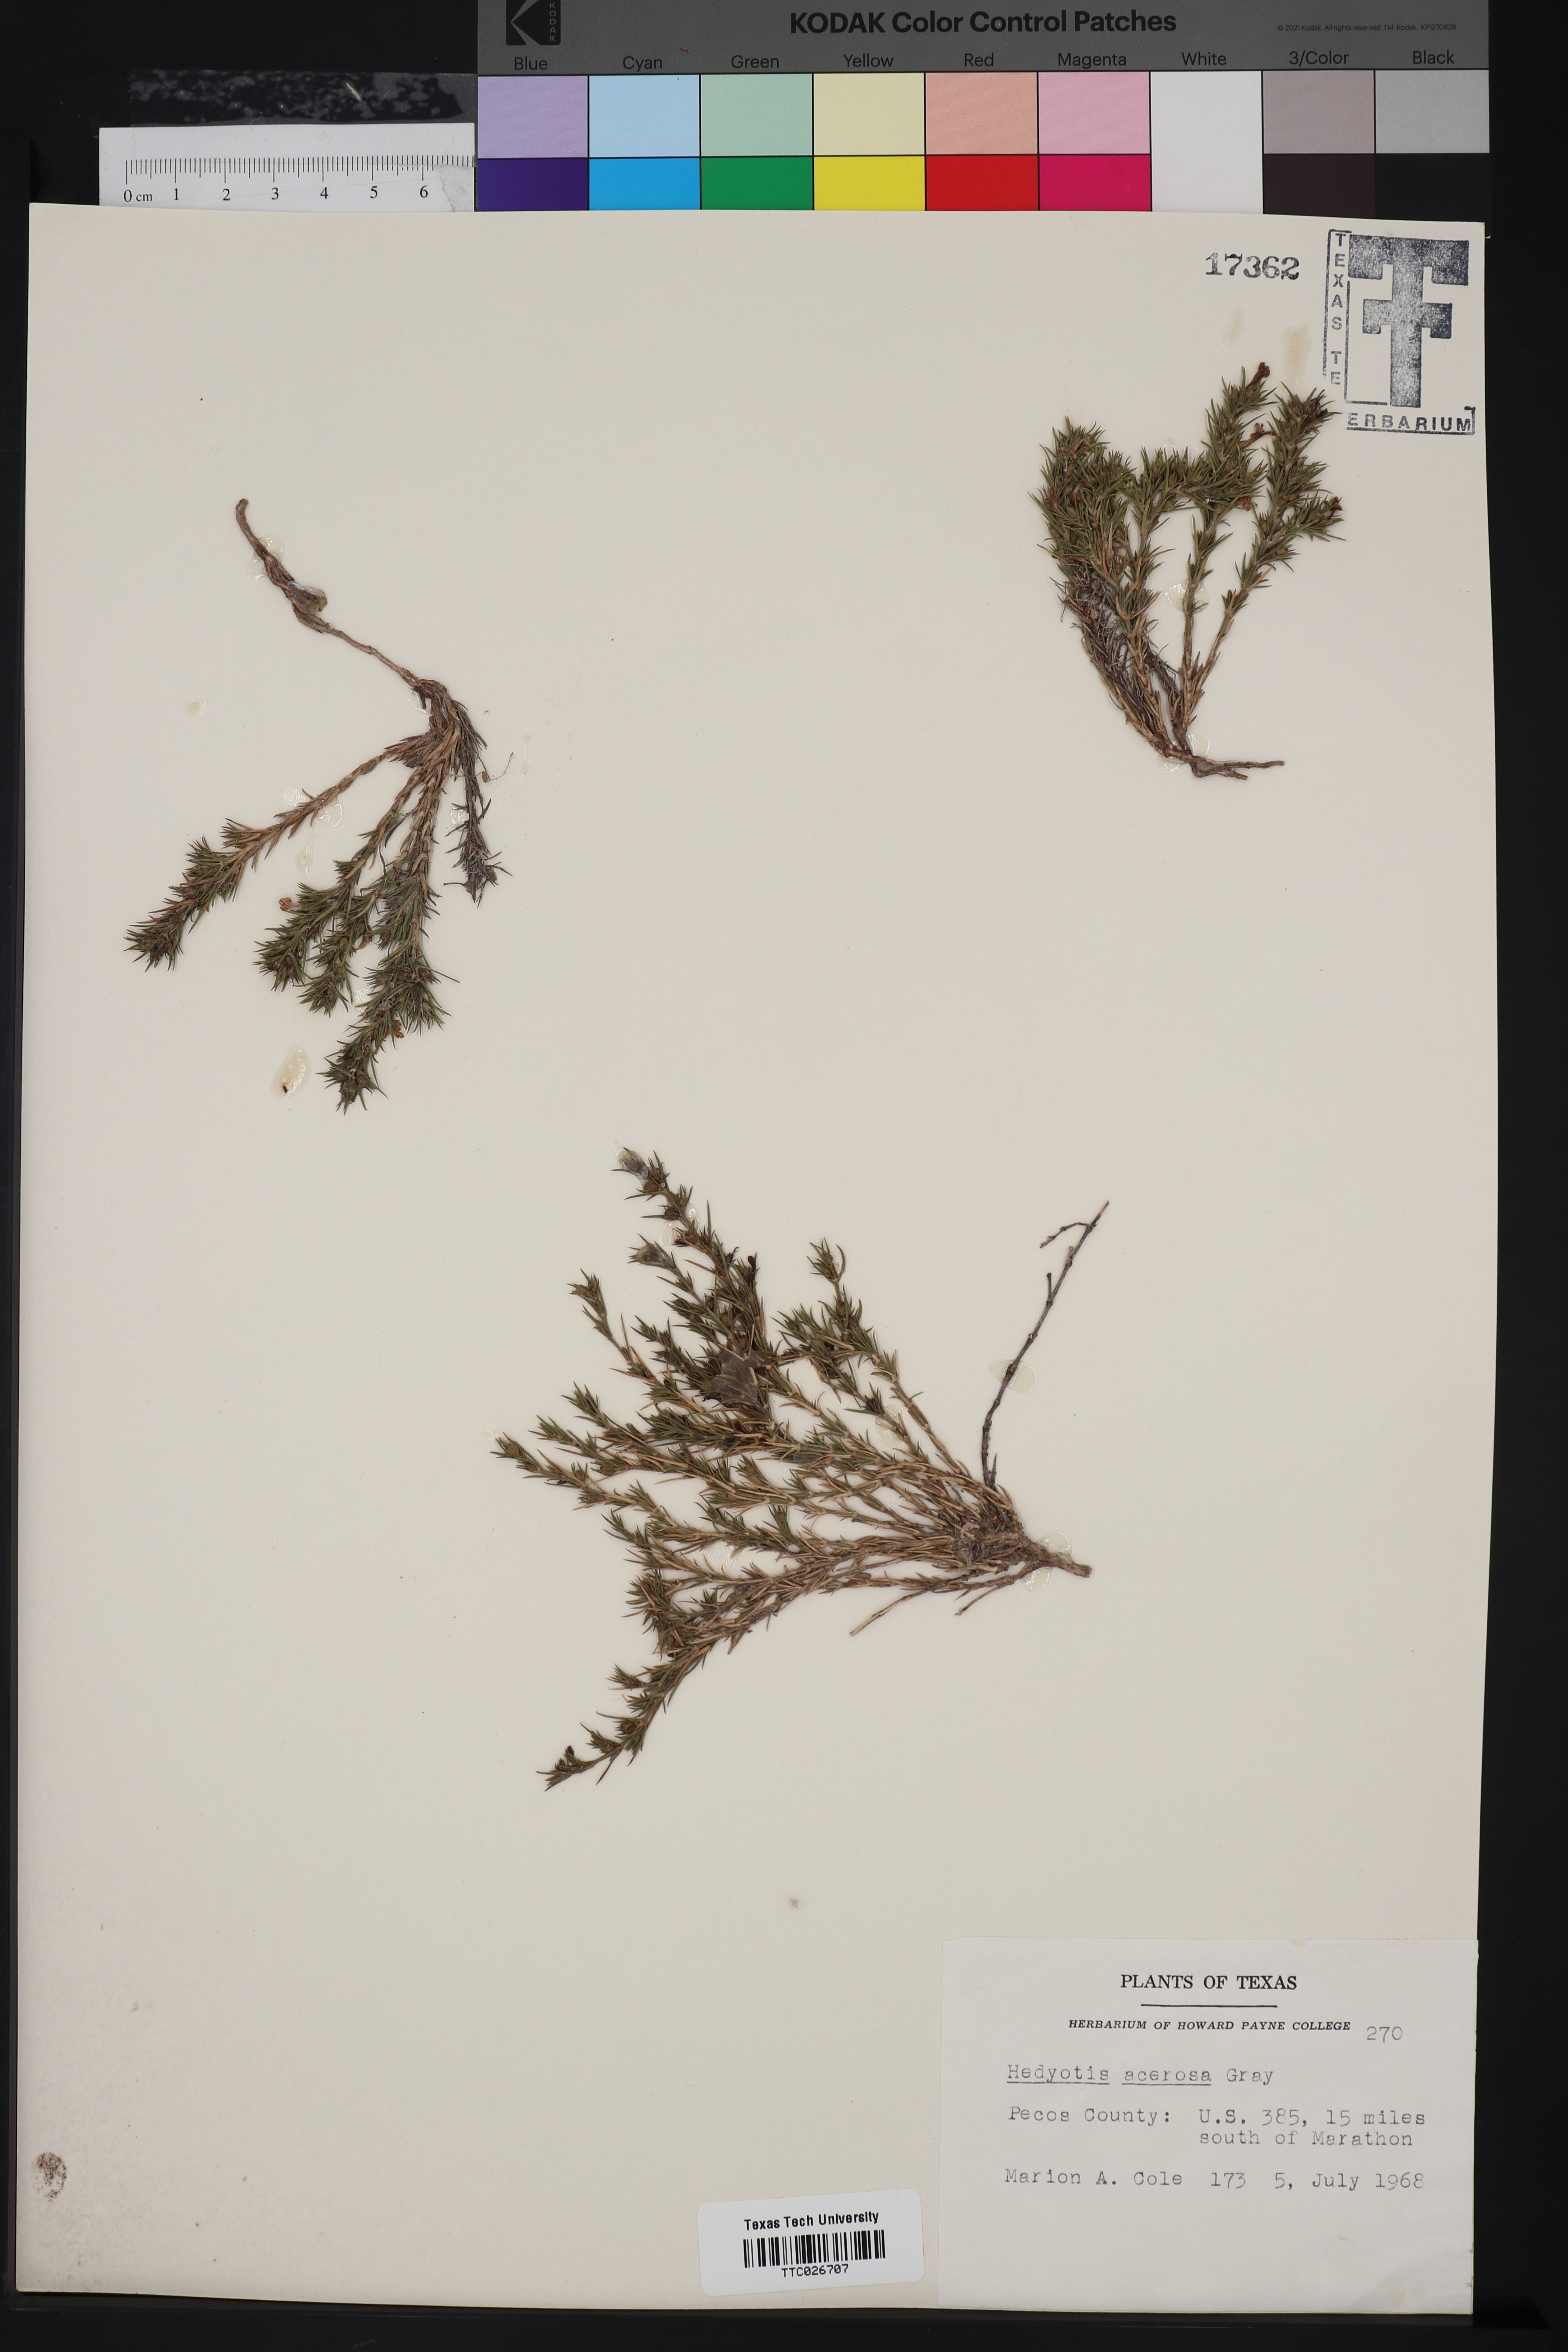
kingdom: Plantae
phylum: Tracheophyta
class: Magnoliopsida
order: Gentianales
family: Rubiaceae
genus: Houstonia
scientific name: Houstonia acerosa
